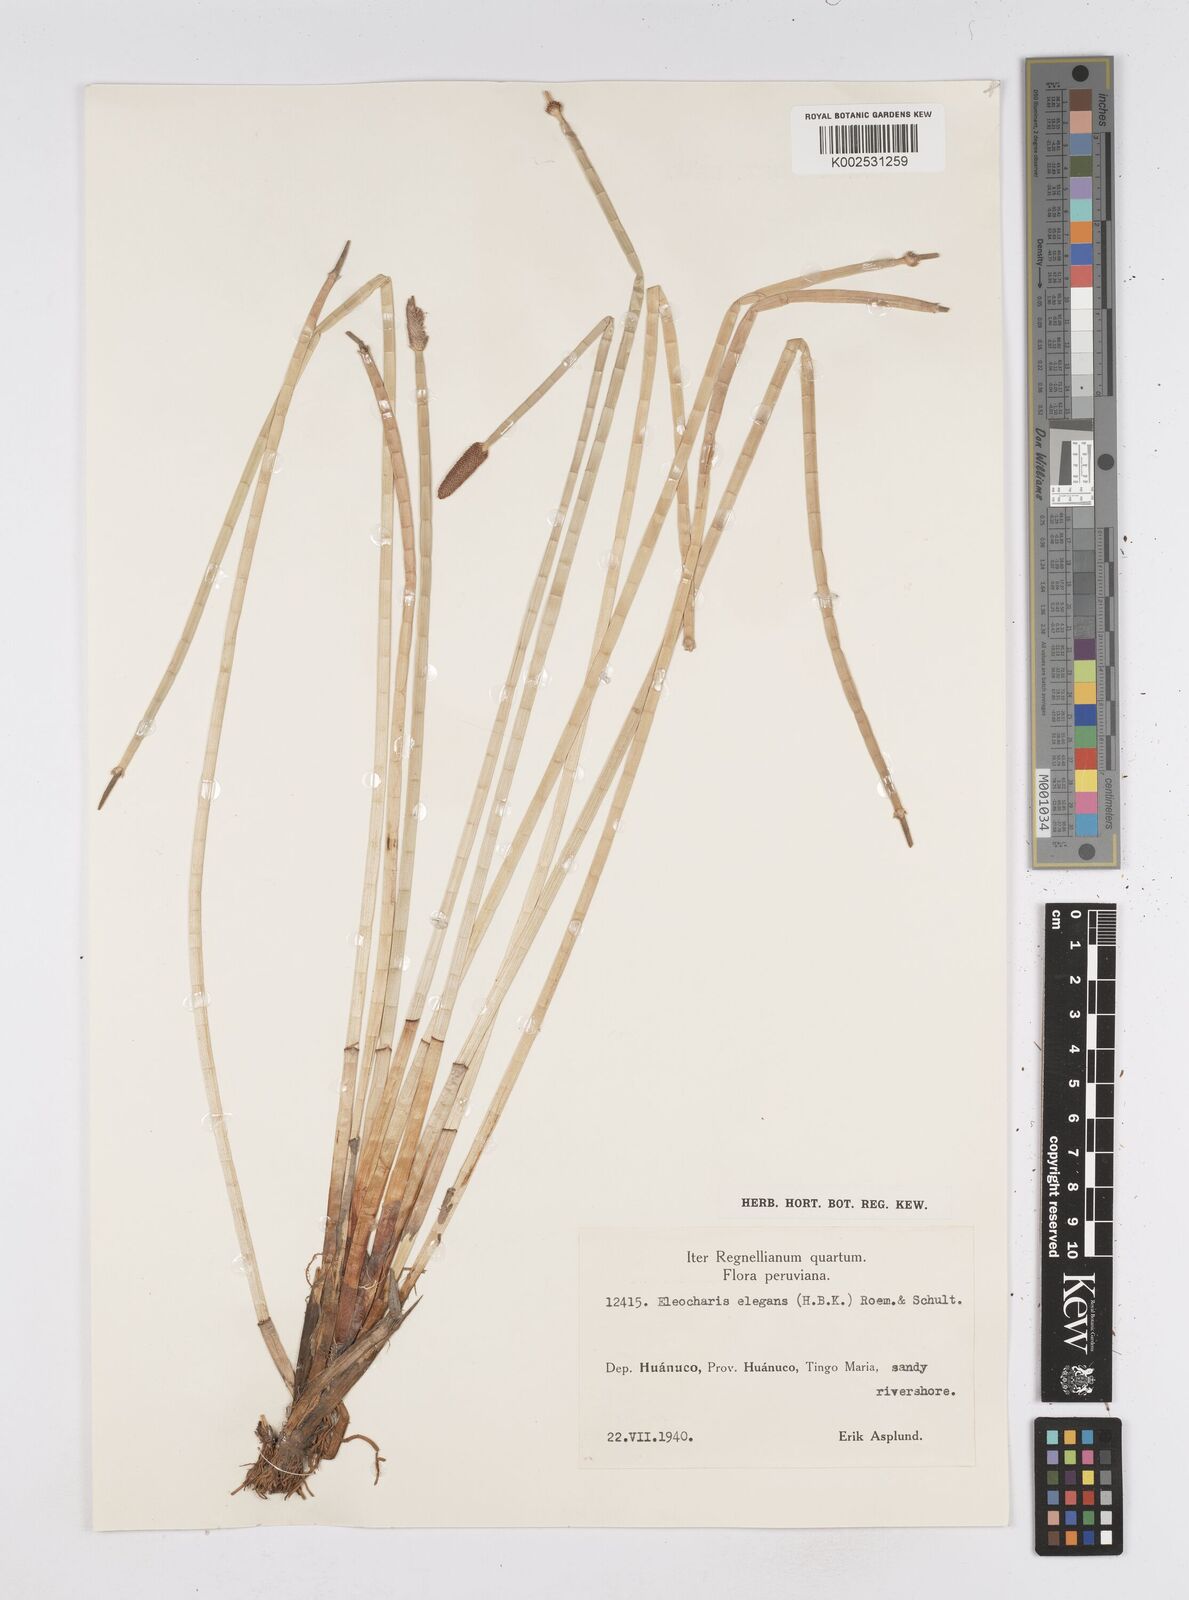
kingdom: Plantae
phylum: Tracheophyta
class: Liliopsida
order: Poales
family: Cyperaceae
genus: Eleocharis
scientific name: Eleocharis elegans
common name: Elegant spike-rush
